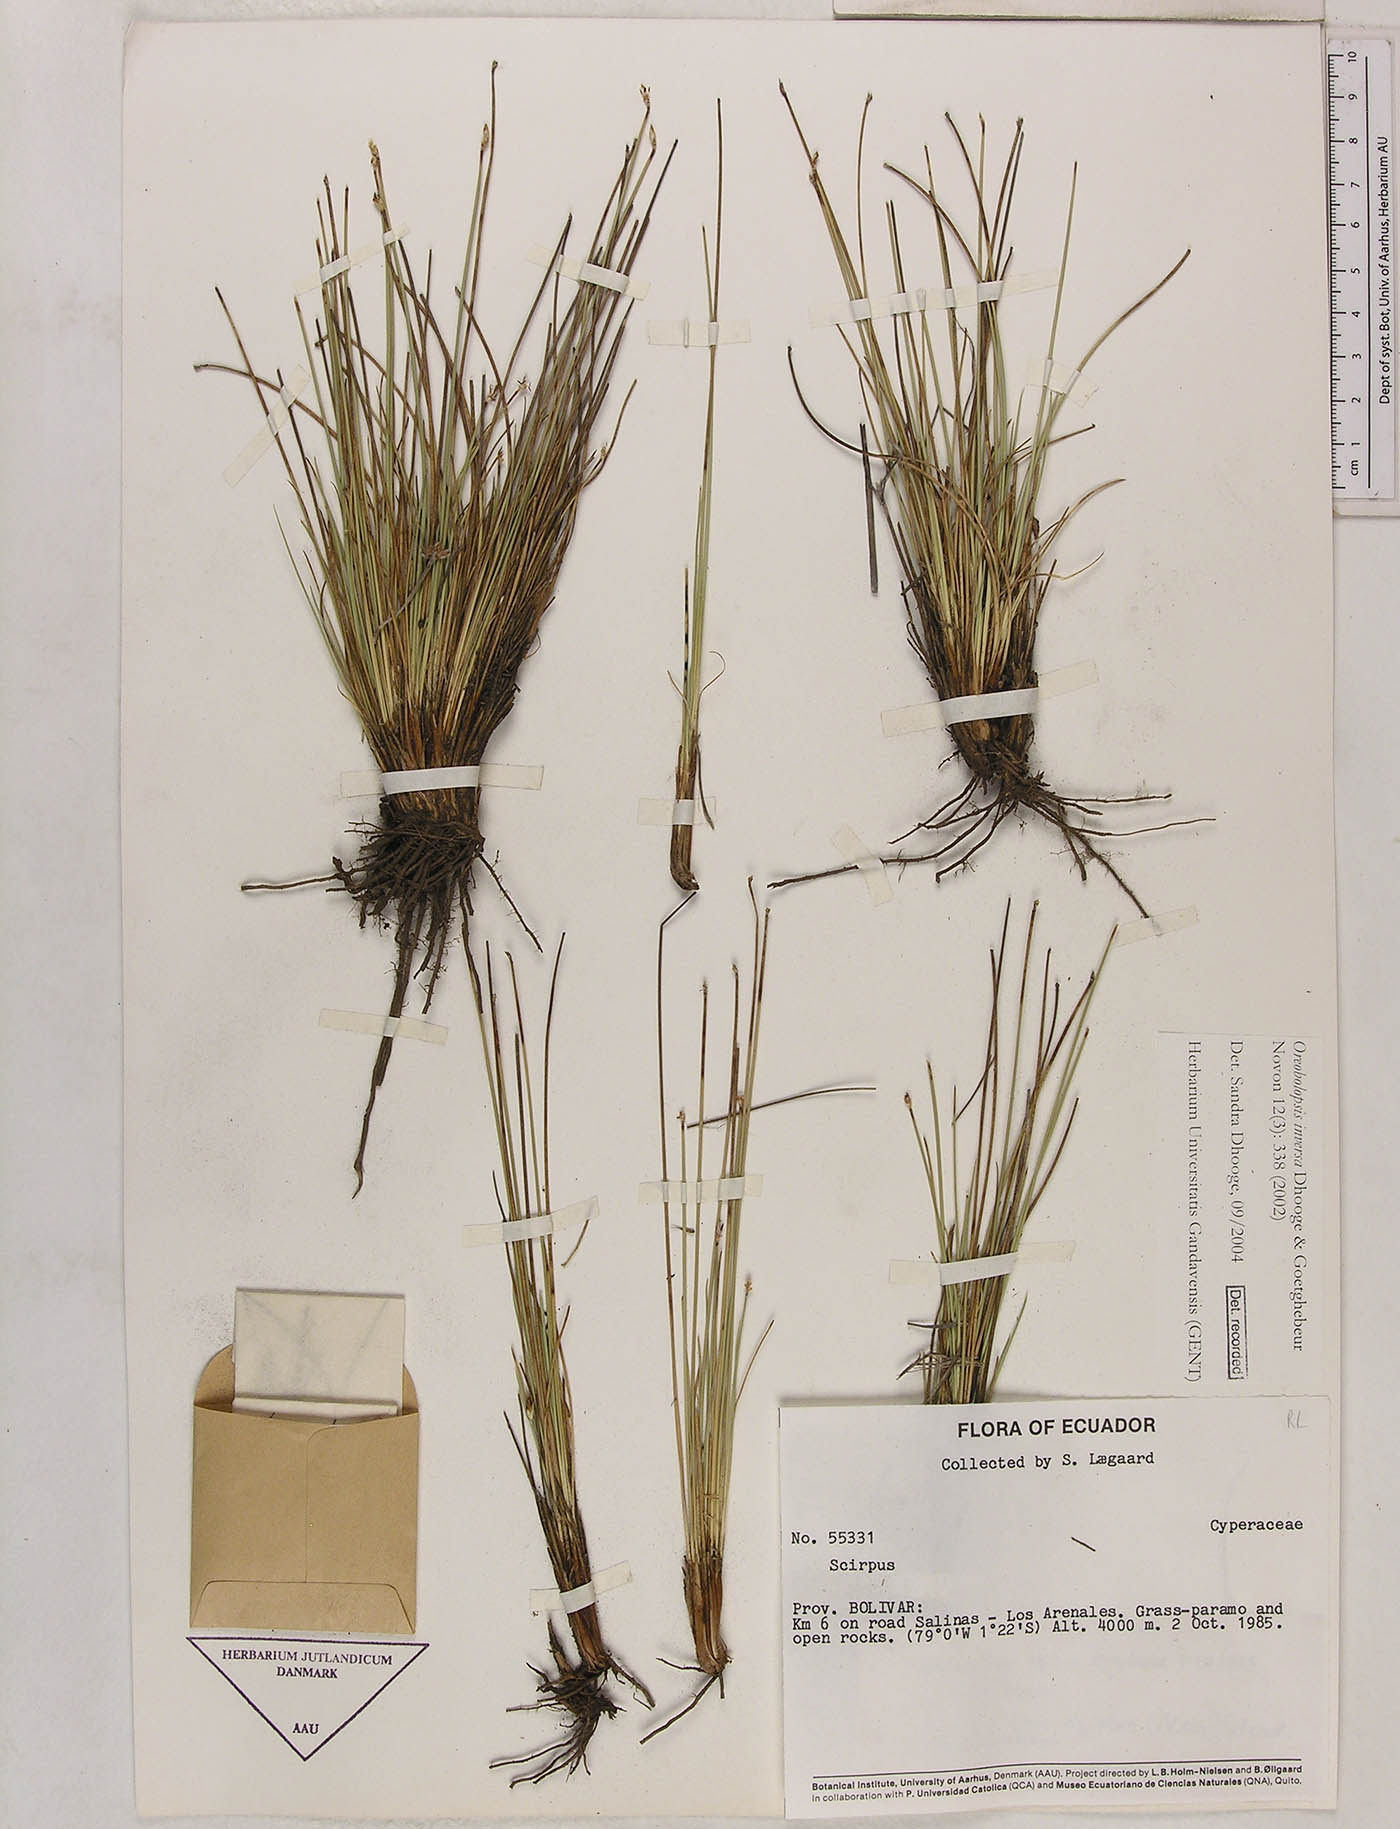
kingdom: Plantae
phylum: Tracheophyta
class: Liliopsida
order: Poales
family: Cyperaceae
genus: Trichophorum
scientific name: Trichophorum inversum
